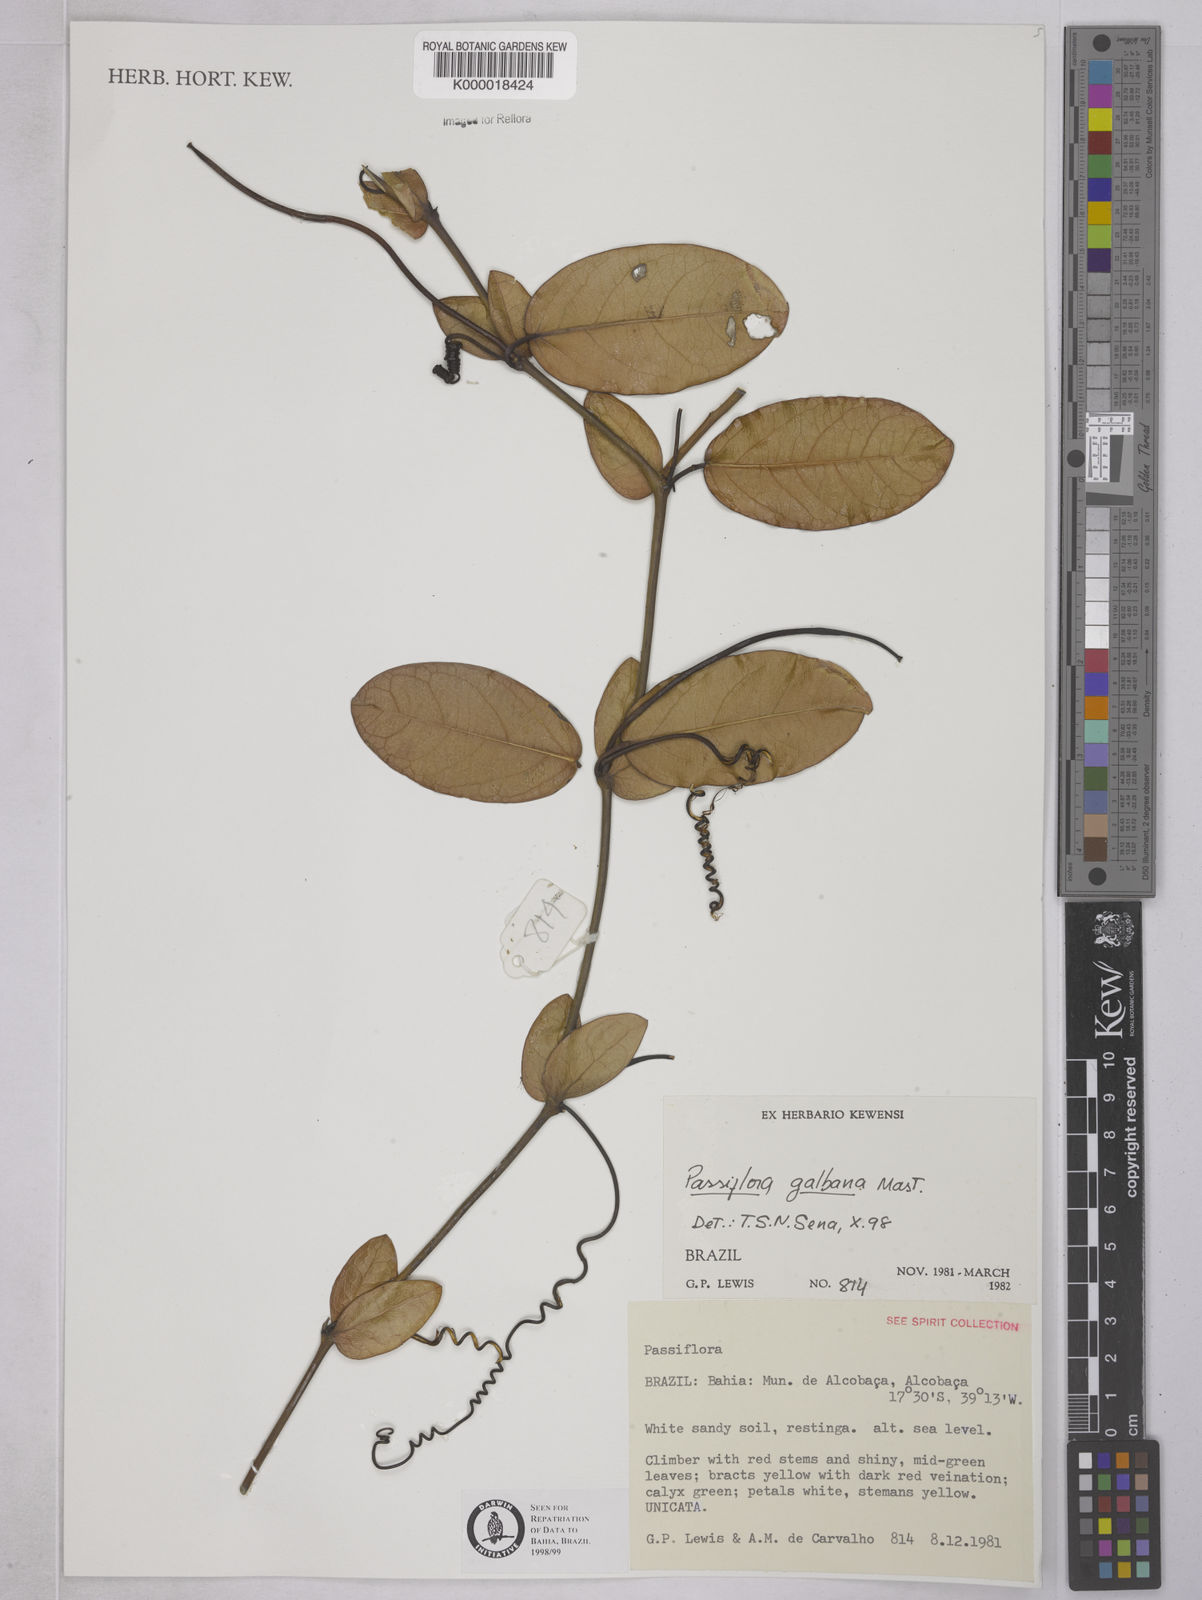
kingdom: Plantae
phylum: Tracheophyta
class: Magnoliopsida
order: Malpighiales
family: Passifloraceae
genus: Passiflora
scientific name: Passiflora silvestris
